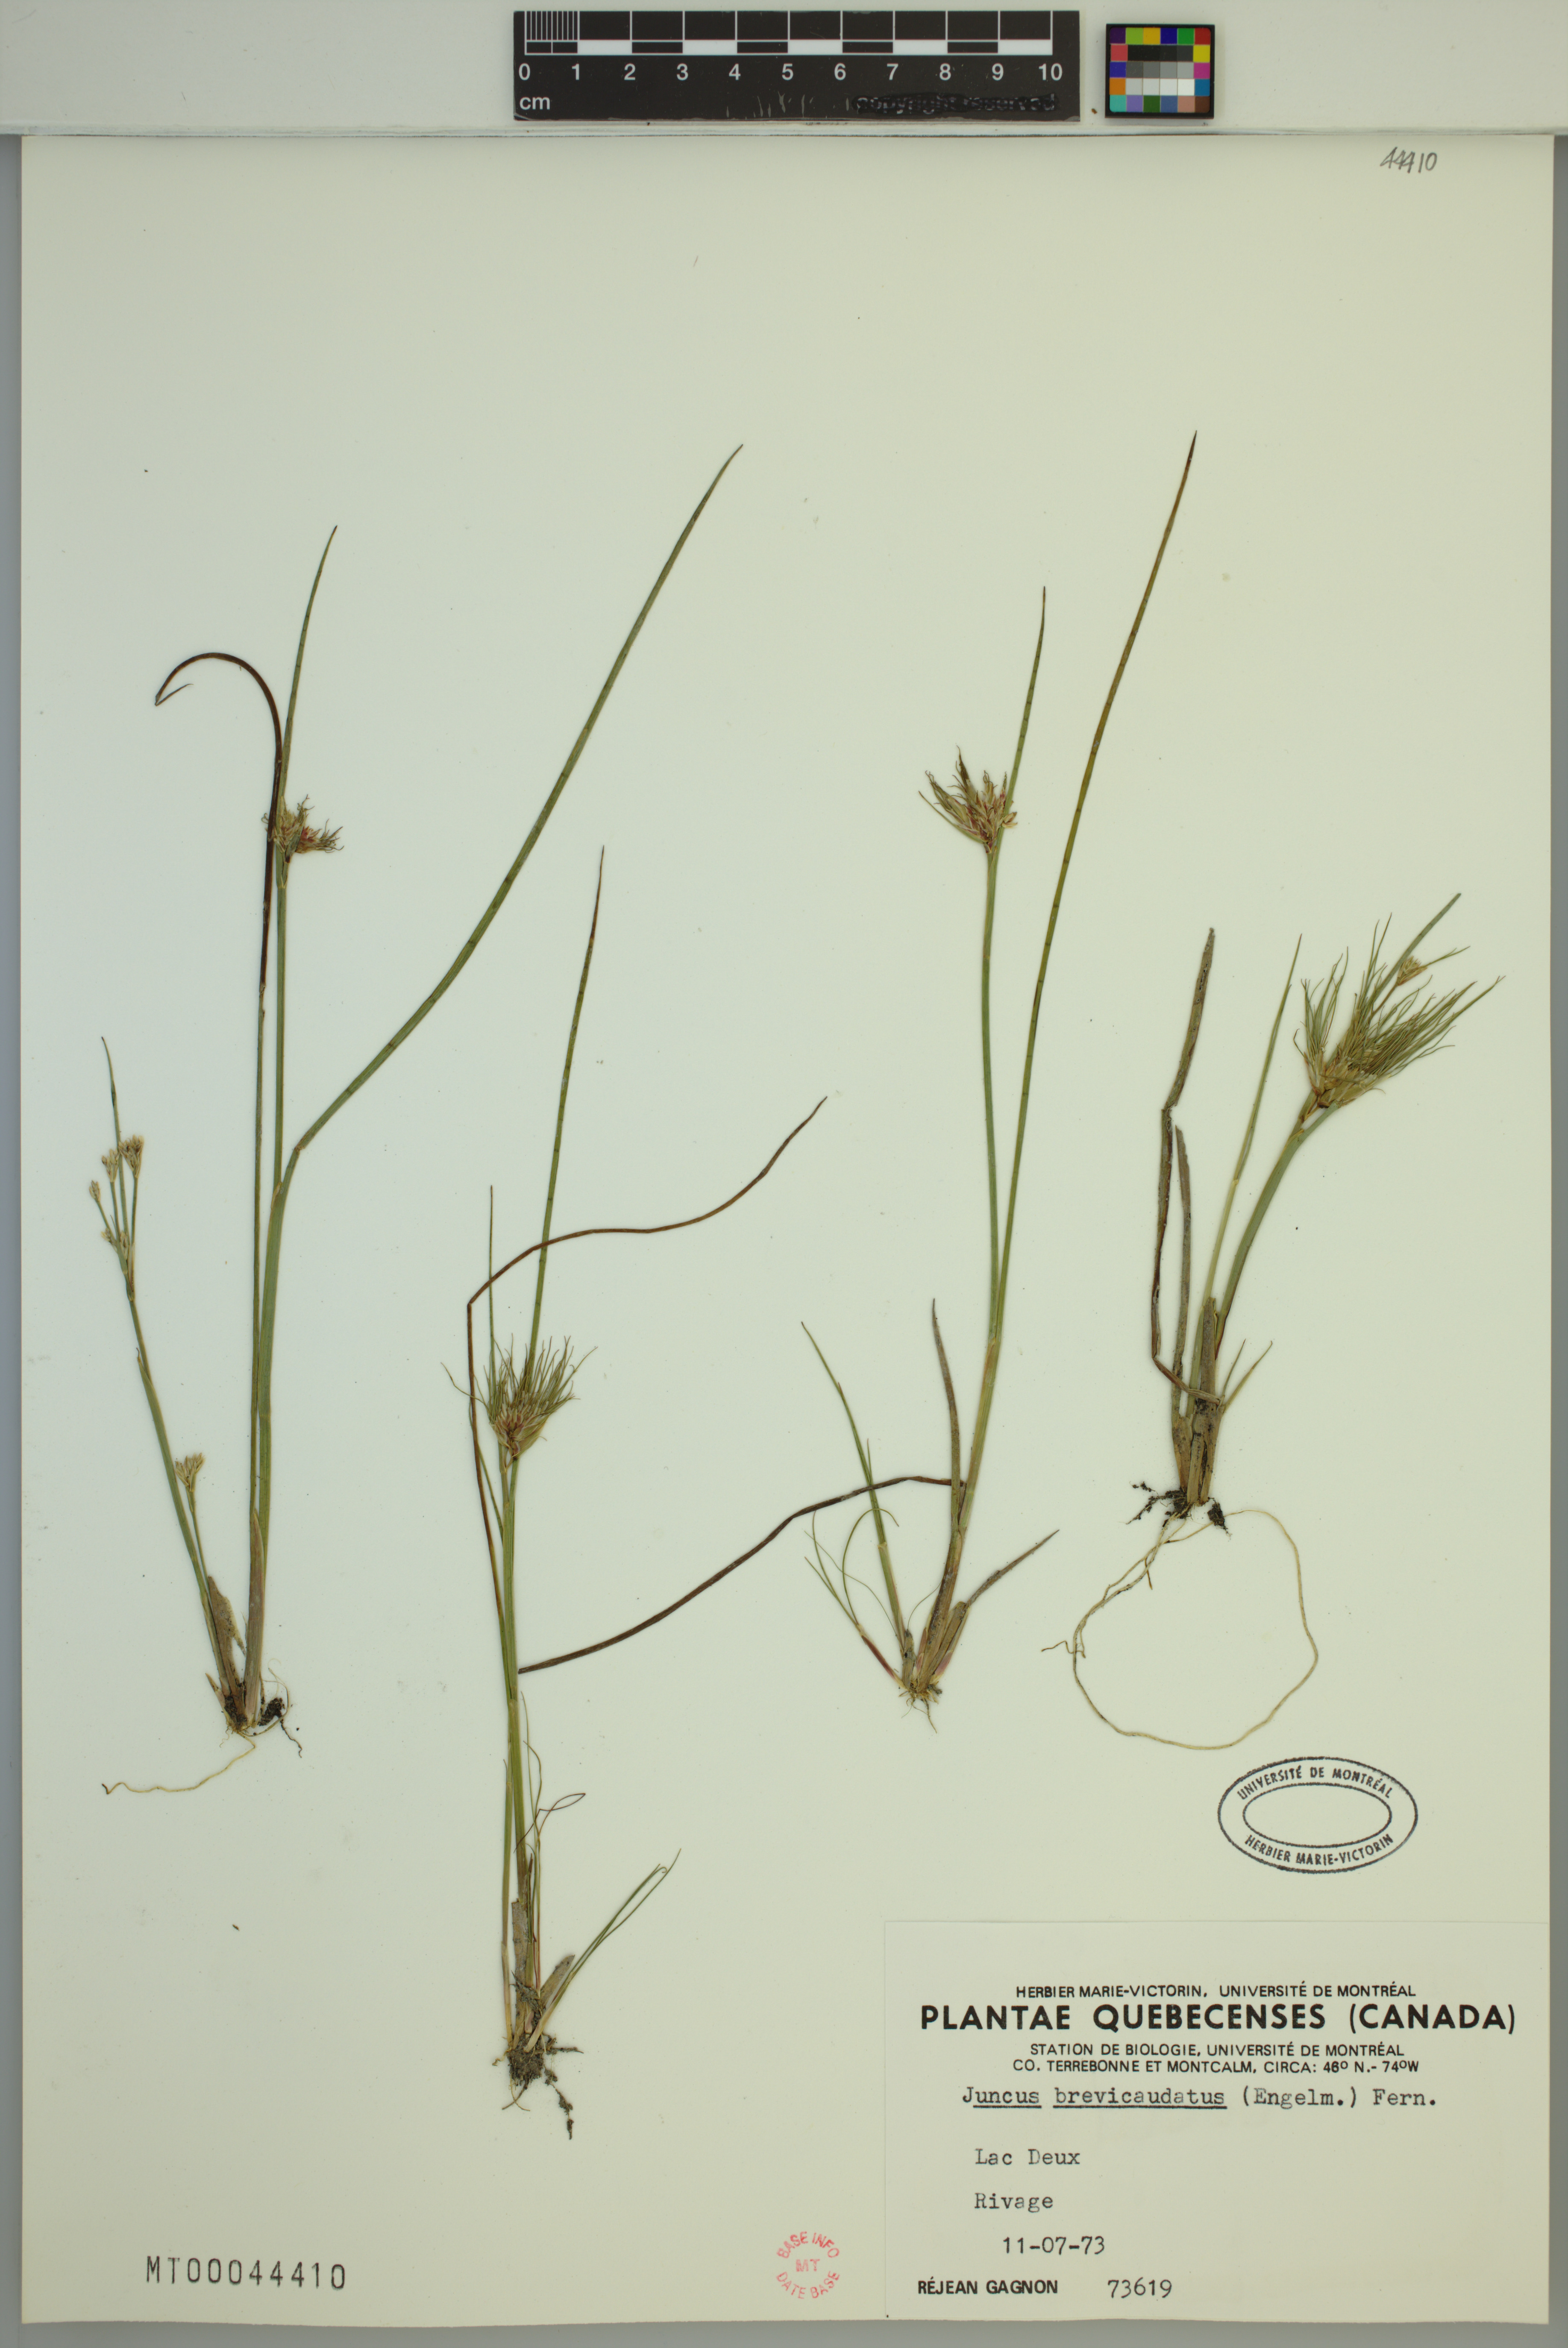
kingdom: Plantae
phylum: Tracheophyta
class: Liliopsida
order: Poales
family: Juncaceae
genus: Juncus
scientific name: Juncus brevicaudatus
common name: Narrow-panicle rush
